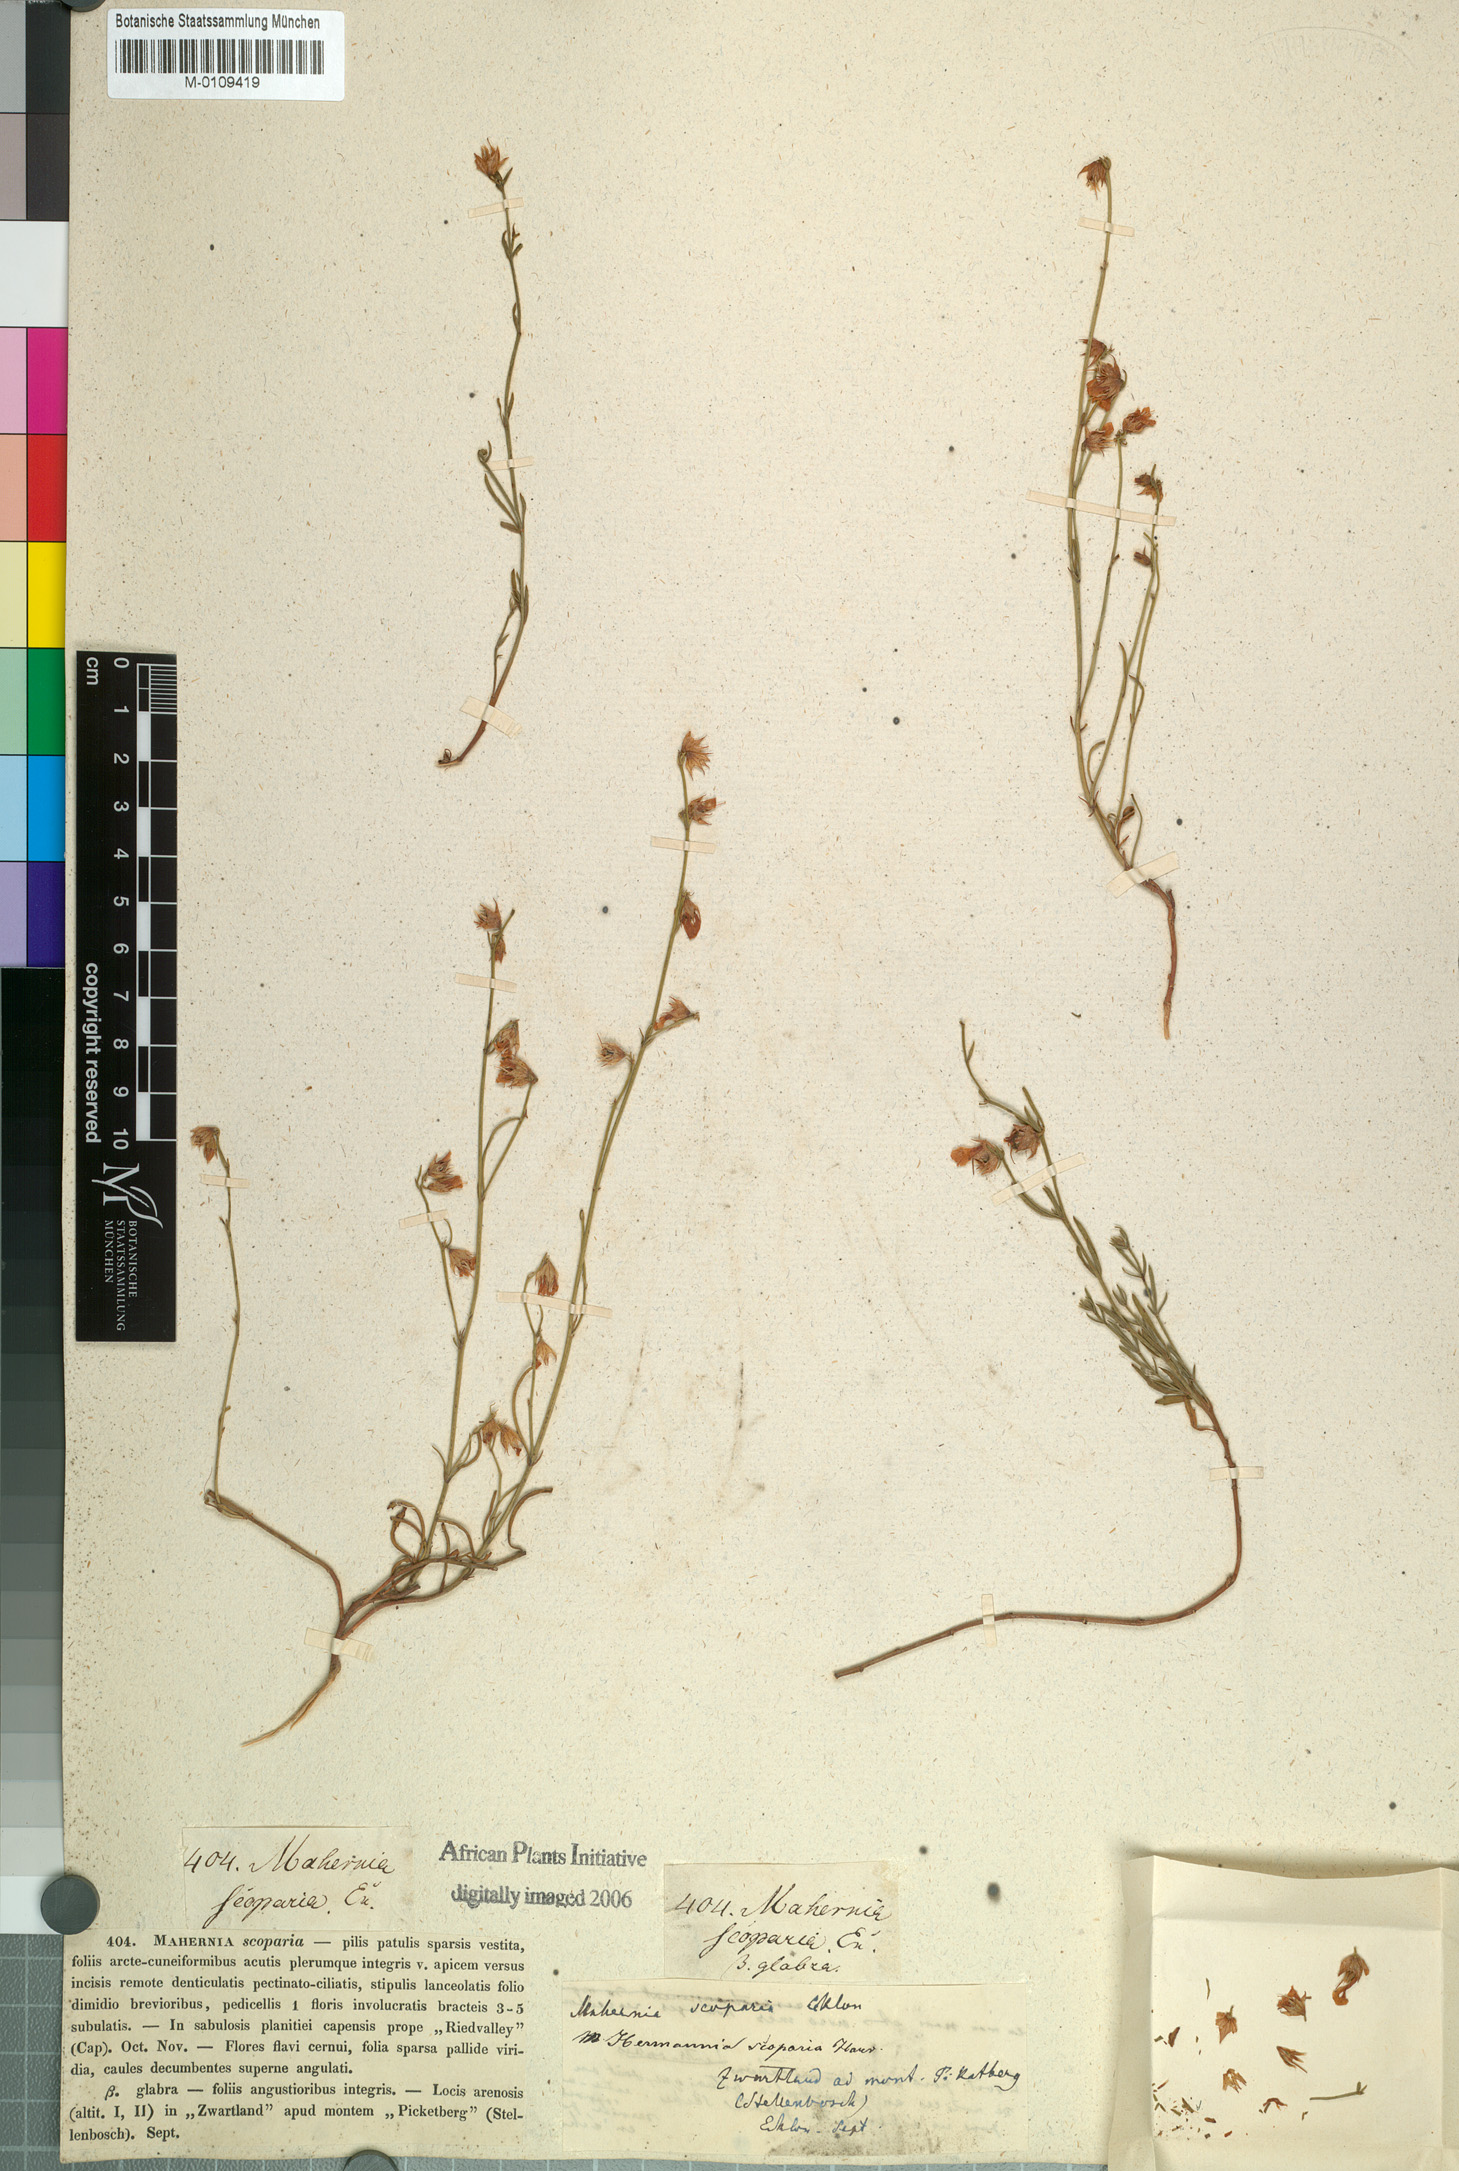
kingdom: Plantae
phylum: Tracheophyta
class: Magnoliopsida
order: Malvales
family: Malvaceae
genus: Hermannia
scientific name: Hermannia linifolia
